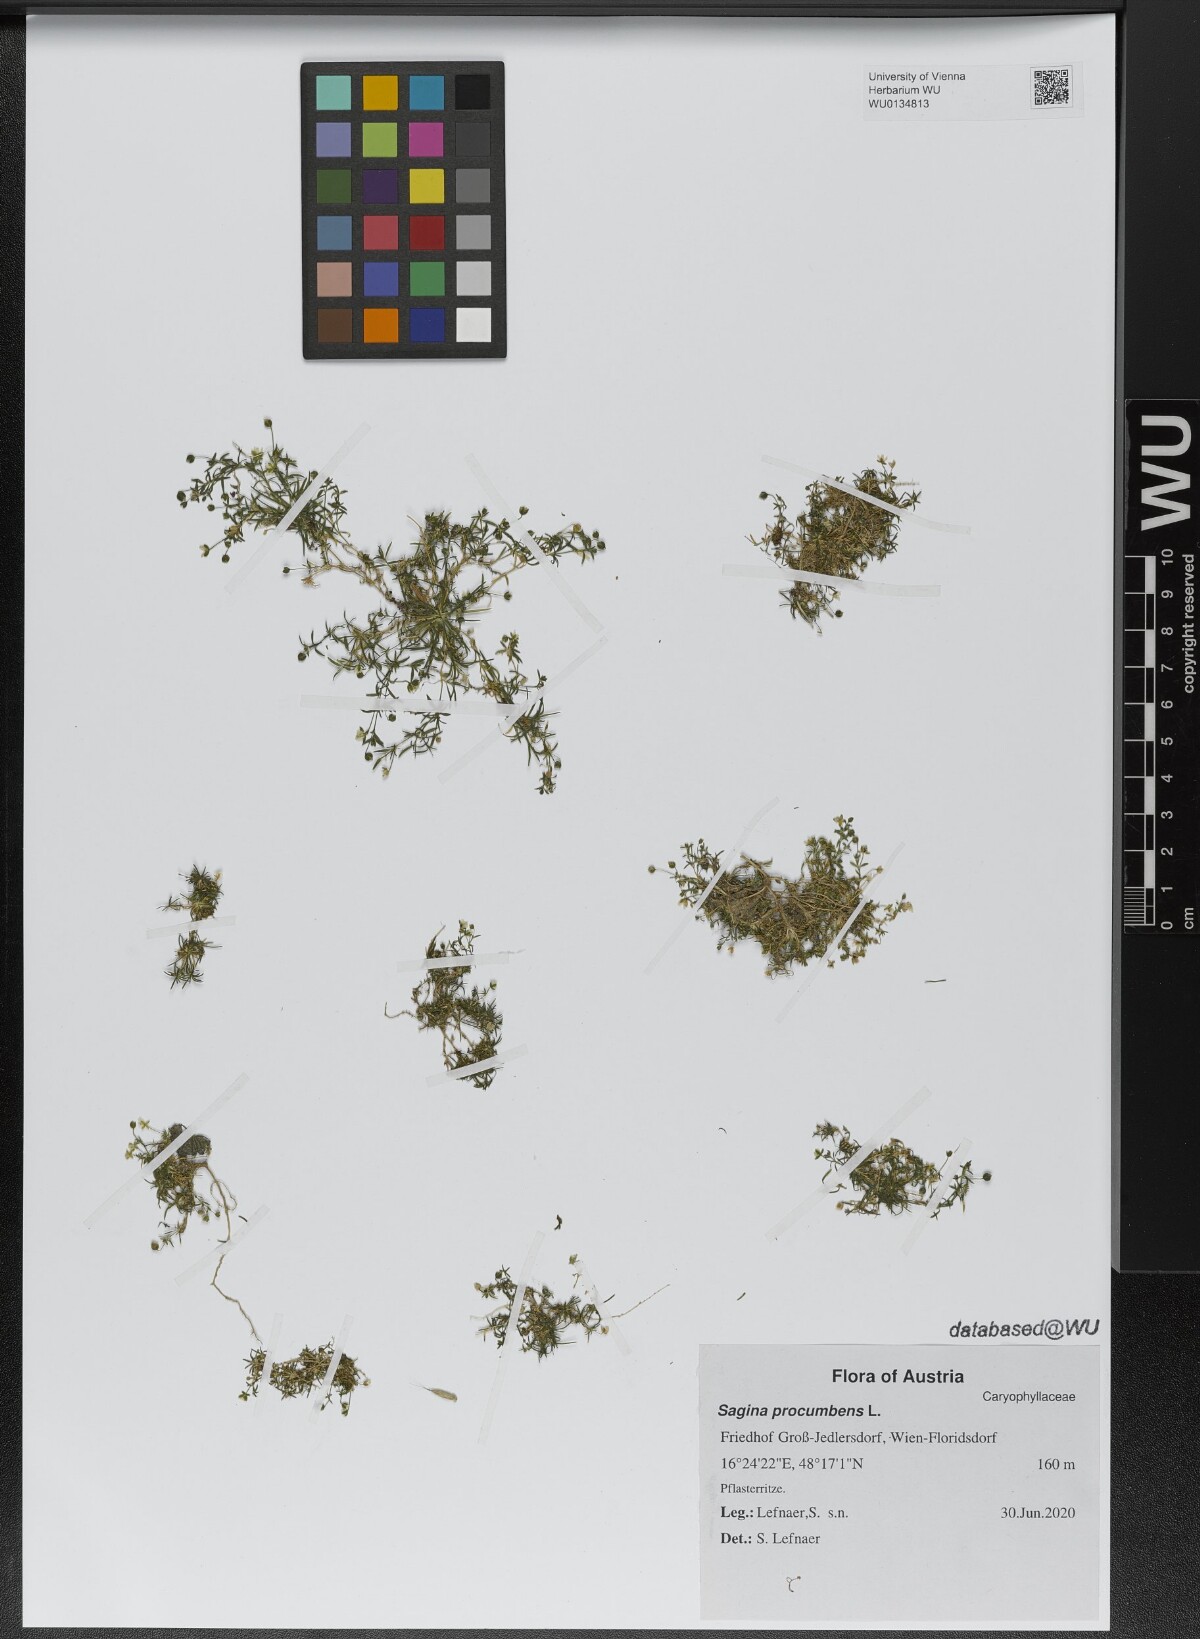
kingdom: Plantae
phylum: Tracheophyta
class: Magnoliopsida
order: Caryophyllales
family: Caryophyllaceae
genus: Sagina
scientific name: Sagina procumbens
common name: Procumbent pearlwort
